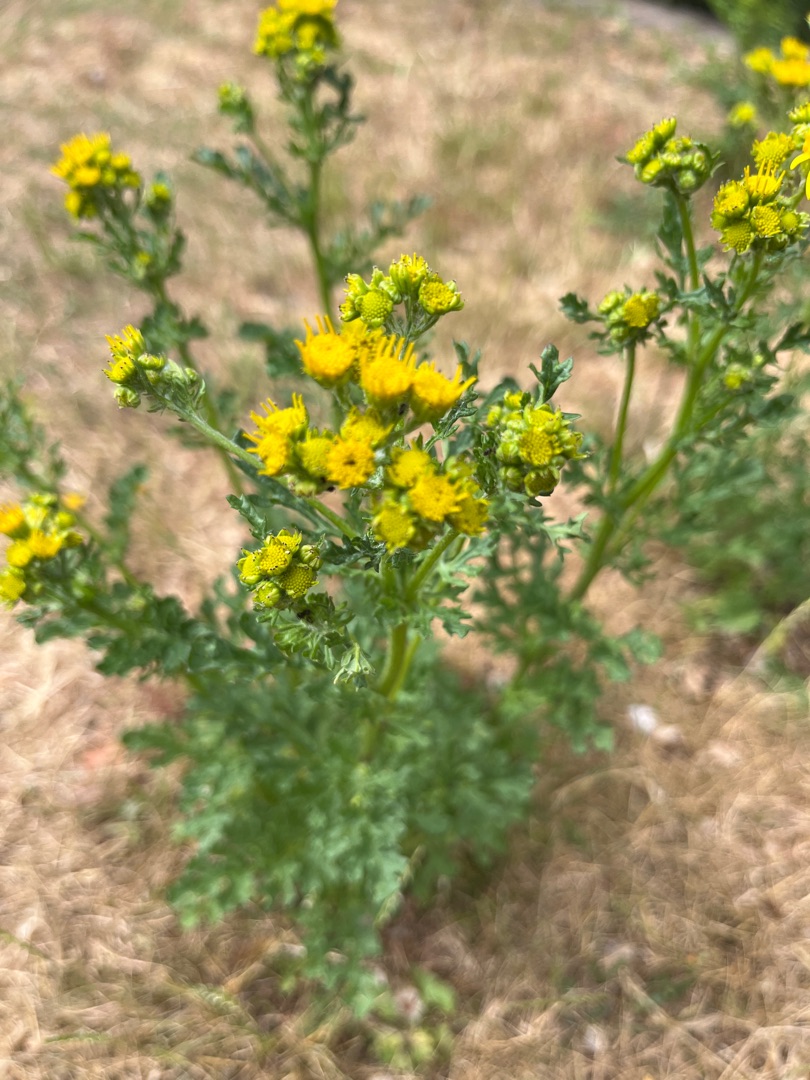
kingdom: Plantae
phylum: Tracheophyta
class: Magnoliopsida
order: Asterales
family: Asteraceae
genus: Jacobaea
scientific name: Jacobaea vulgaris
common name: Eng-brandbæger
